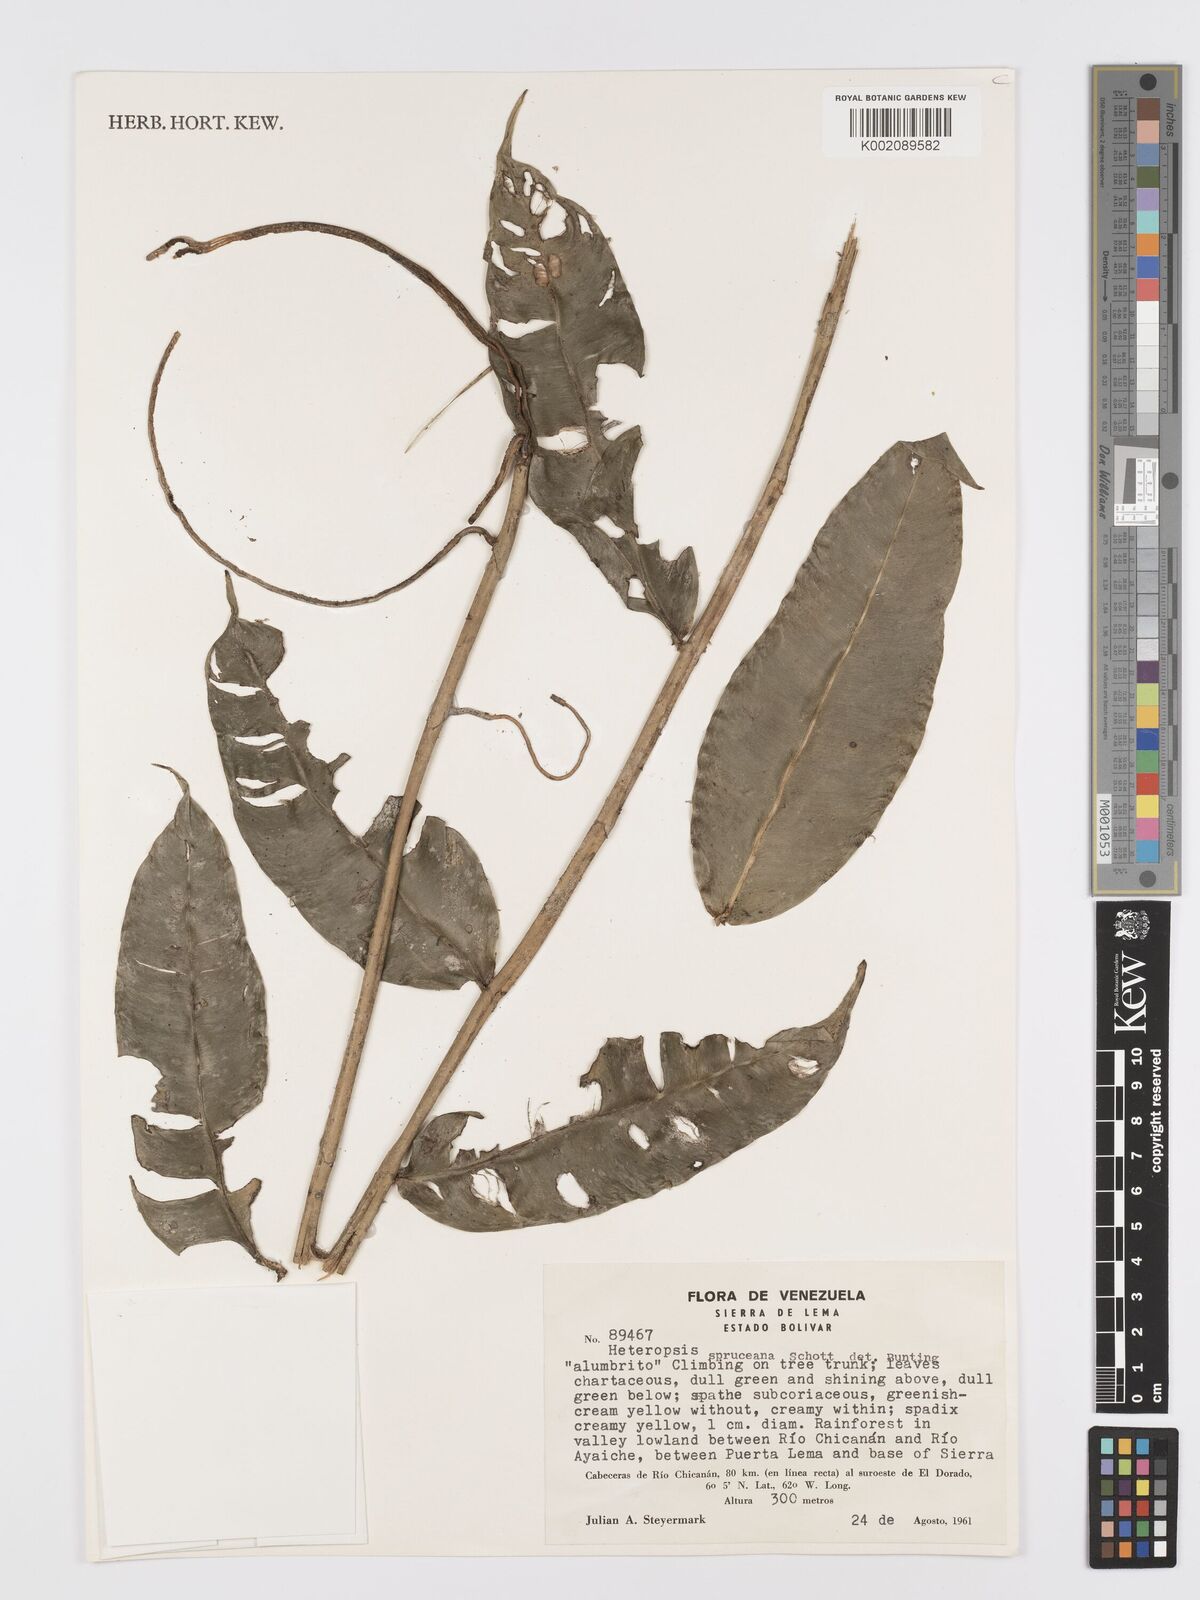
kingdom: Plantae
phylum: Tracheophyta
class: Liliopsida
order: Alismatales
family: Araceae
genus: Heteropsis
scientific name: Heteropsis spruceana
